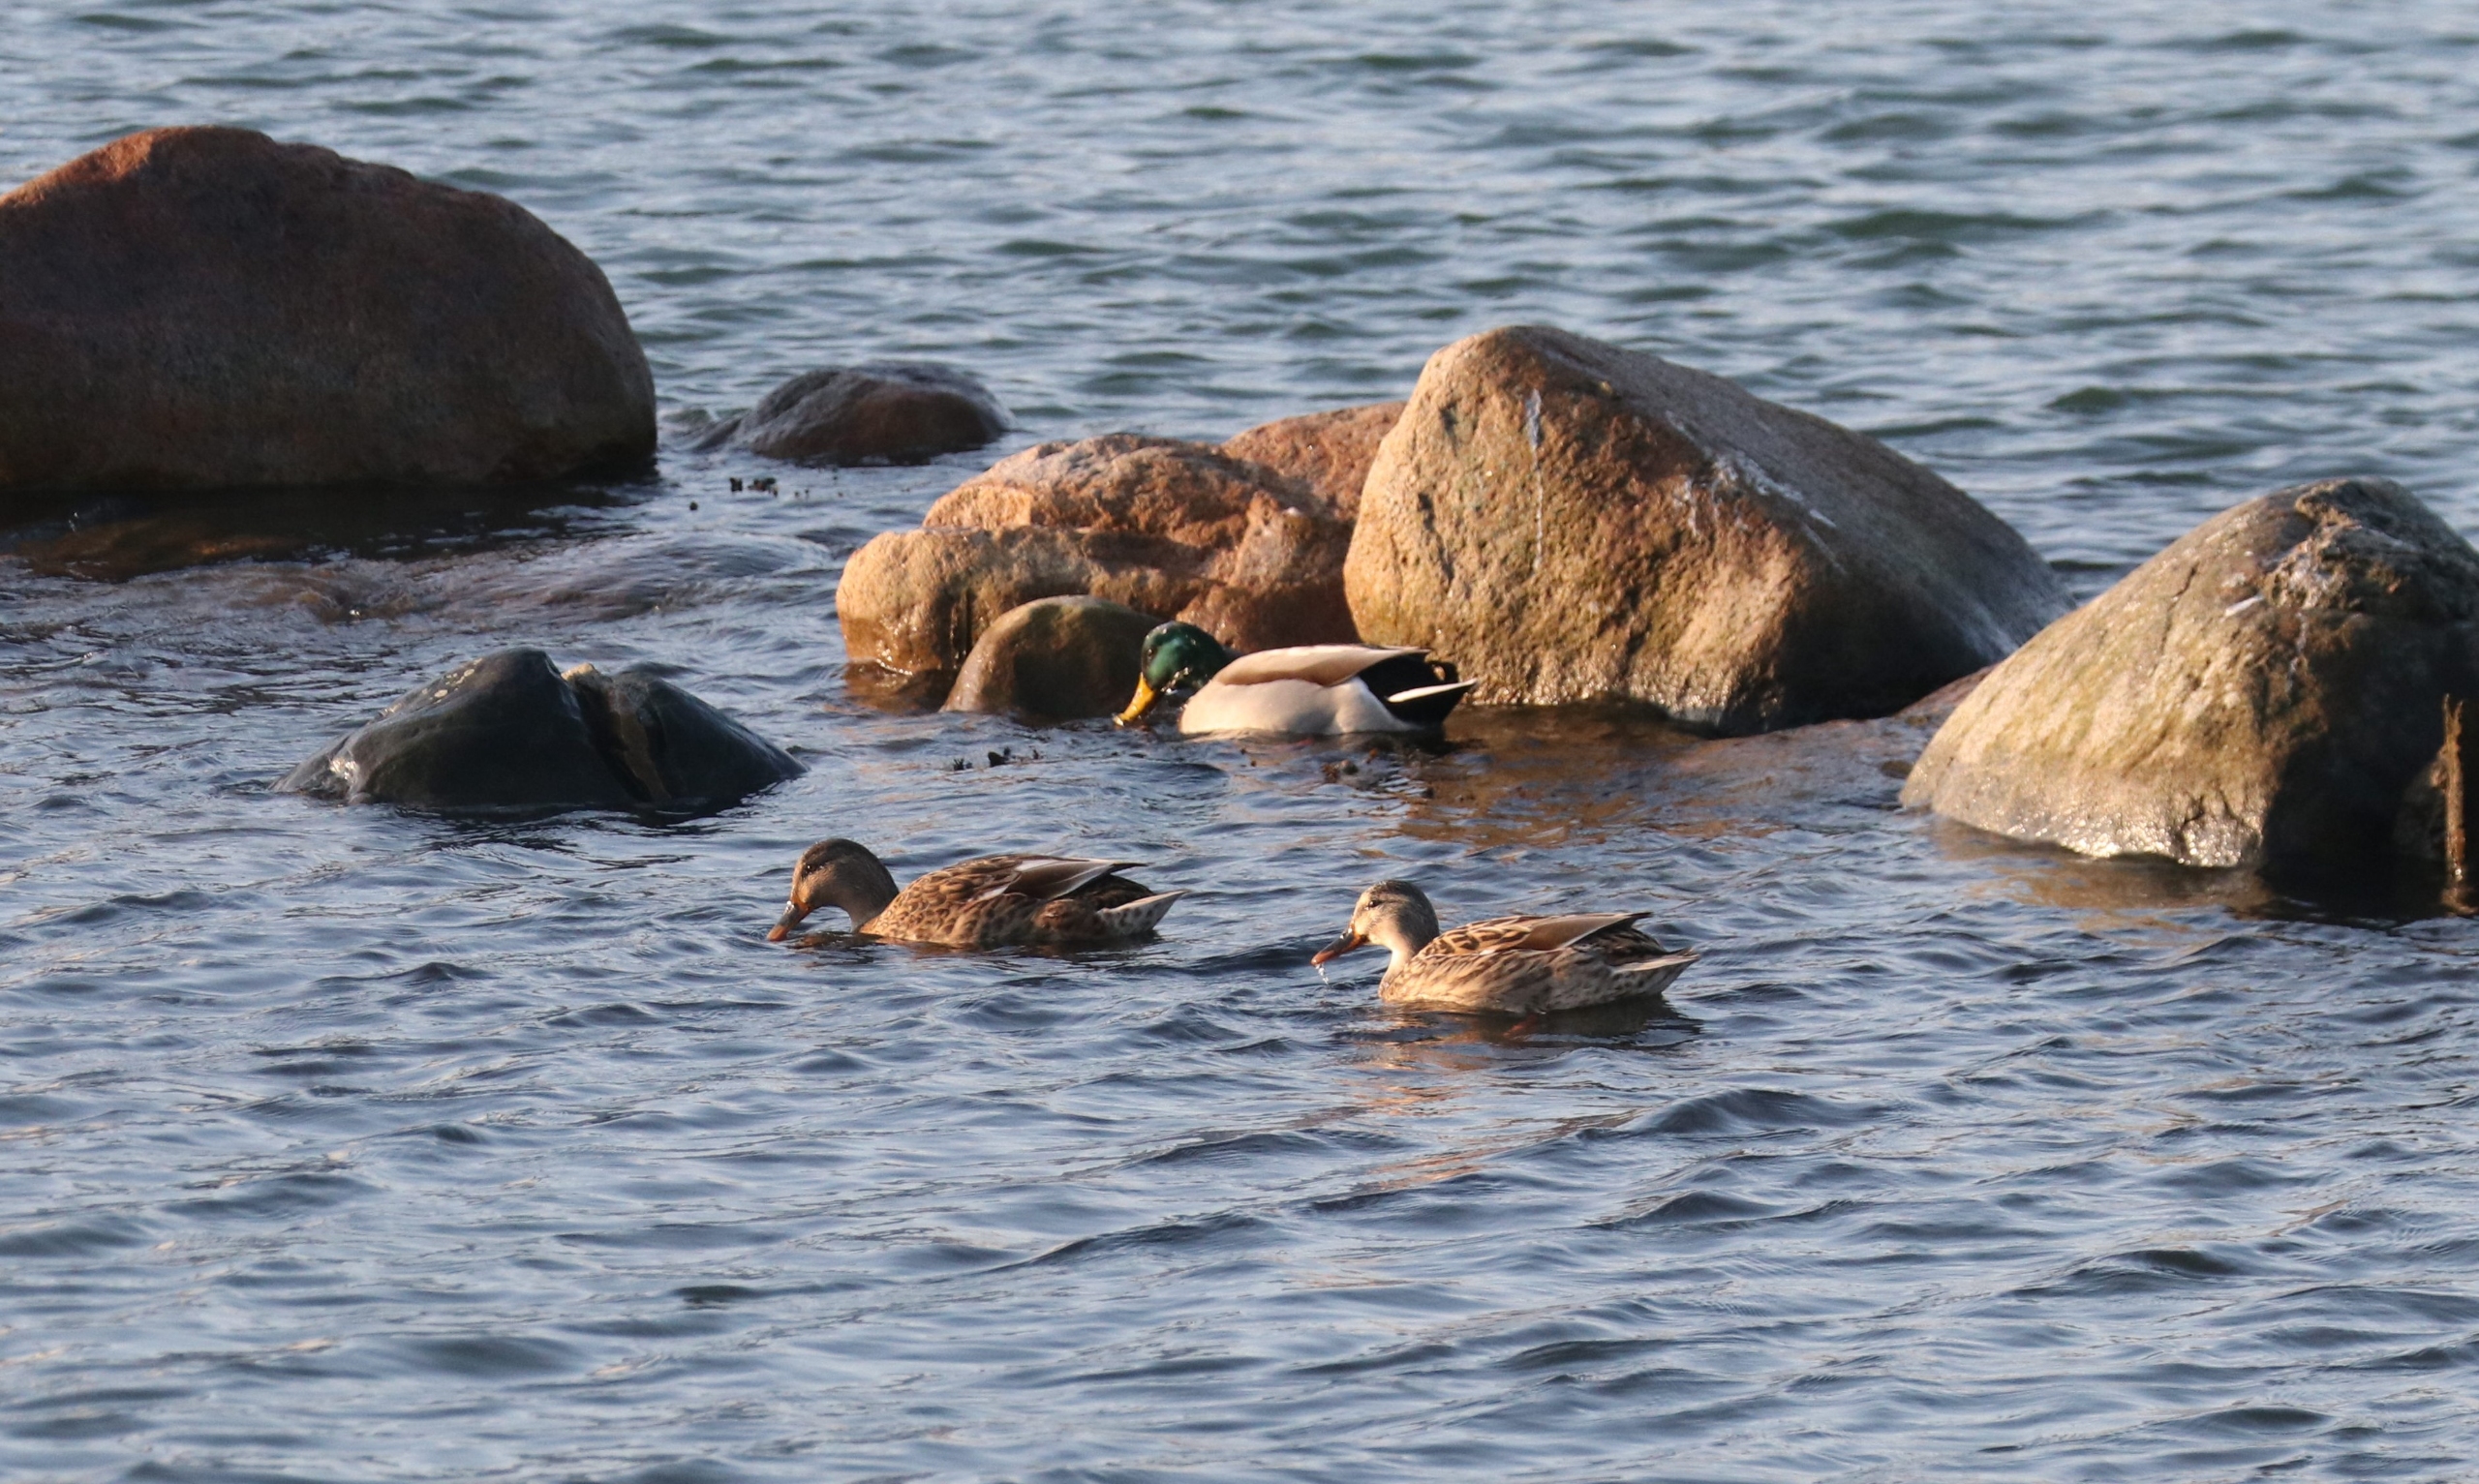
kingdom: Animalia
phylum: Chordata
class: Aves
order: Anseriformes
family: Anatidae
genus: Anas
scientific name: Anas platyrhynchos
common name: Gråand
